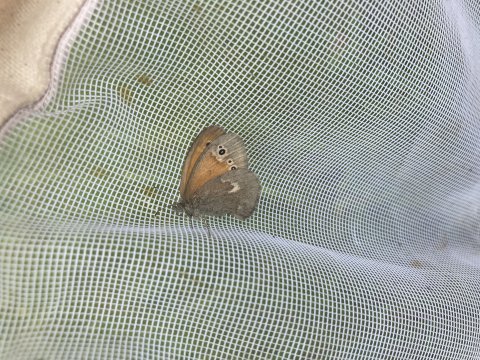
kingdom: Animalia
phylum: Arthropoda
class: Insecta
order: Lepidoptera
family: Nymphalidae
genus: Coenonympha
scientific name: Coenonympha tullia
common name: Large Heath
